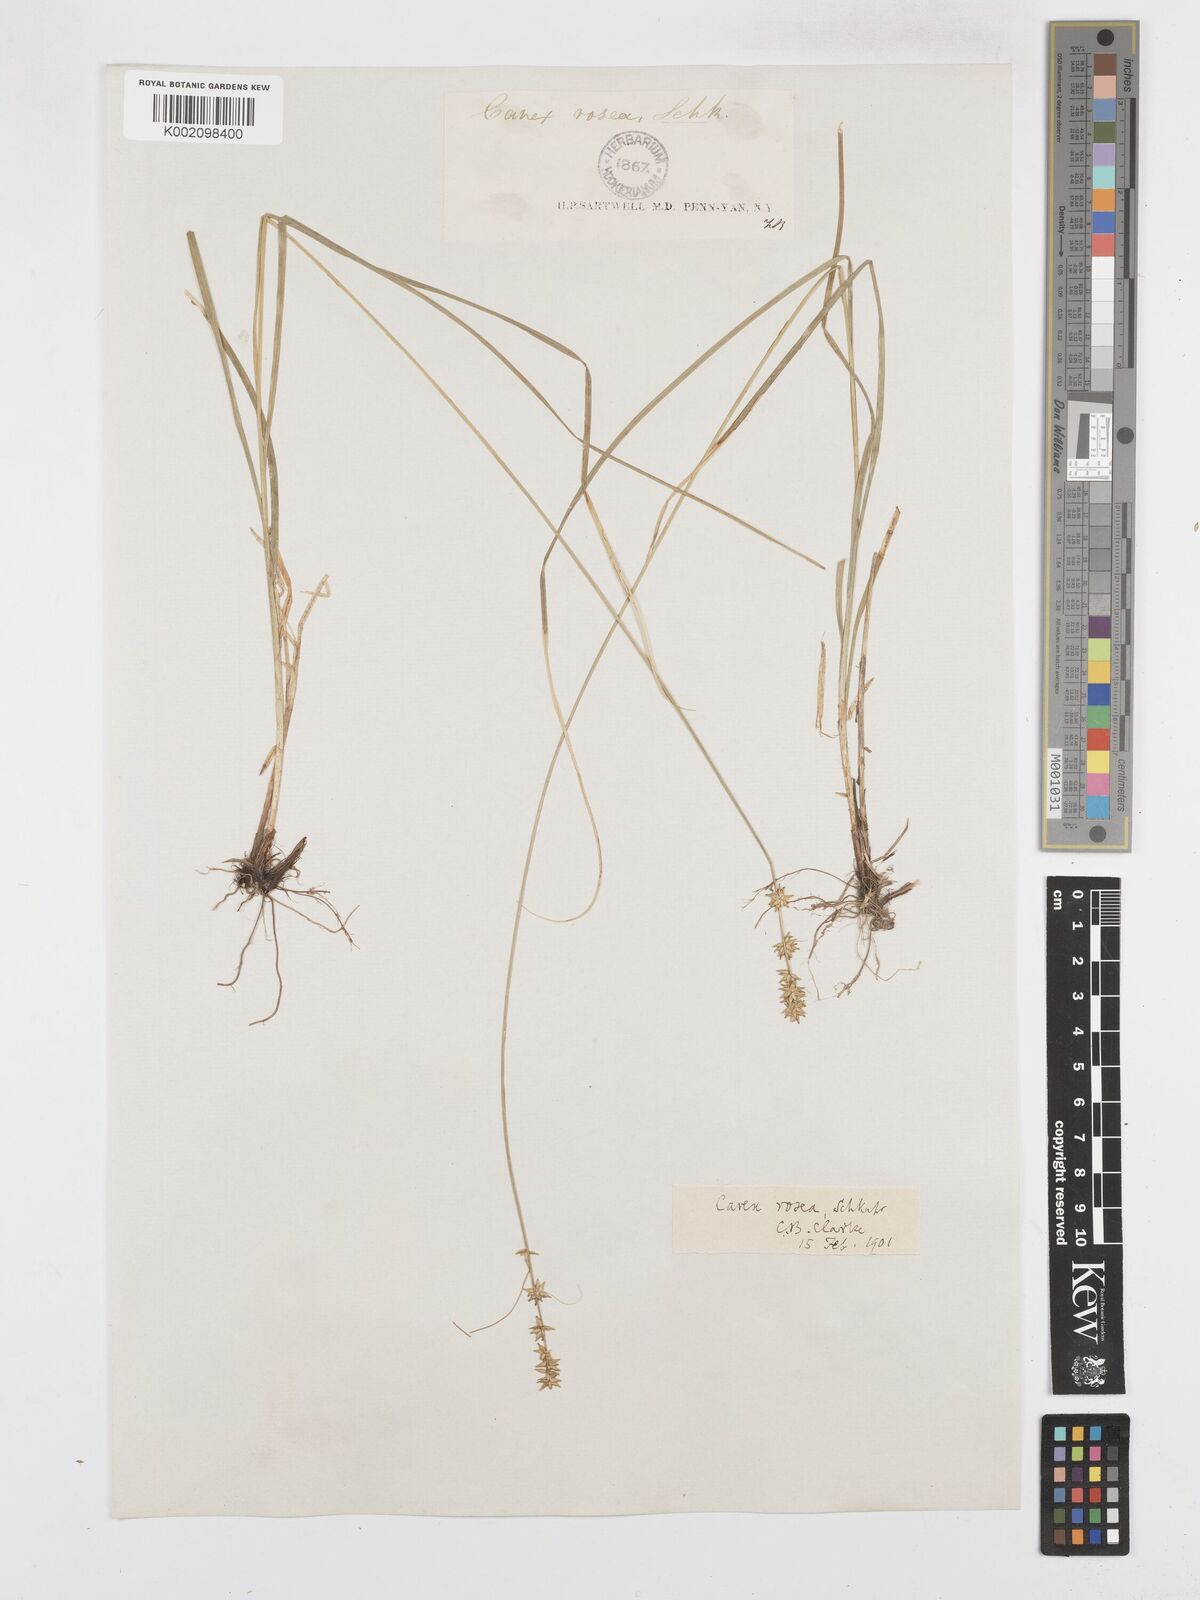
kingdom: Plantae
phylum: Tracheophyta
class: Liliopsida
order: Poales
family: Cyperaceae
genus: Carex
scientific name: Carex rosea
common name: Curly-styled wood sedge
